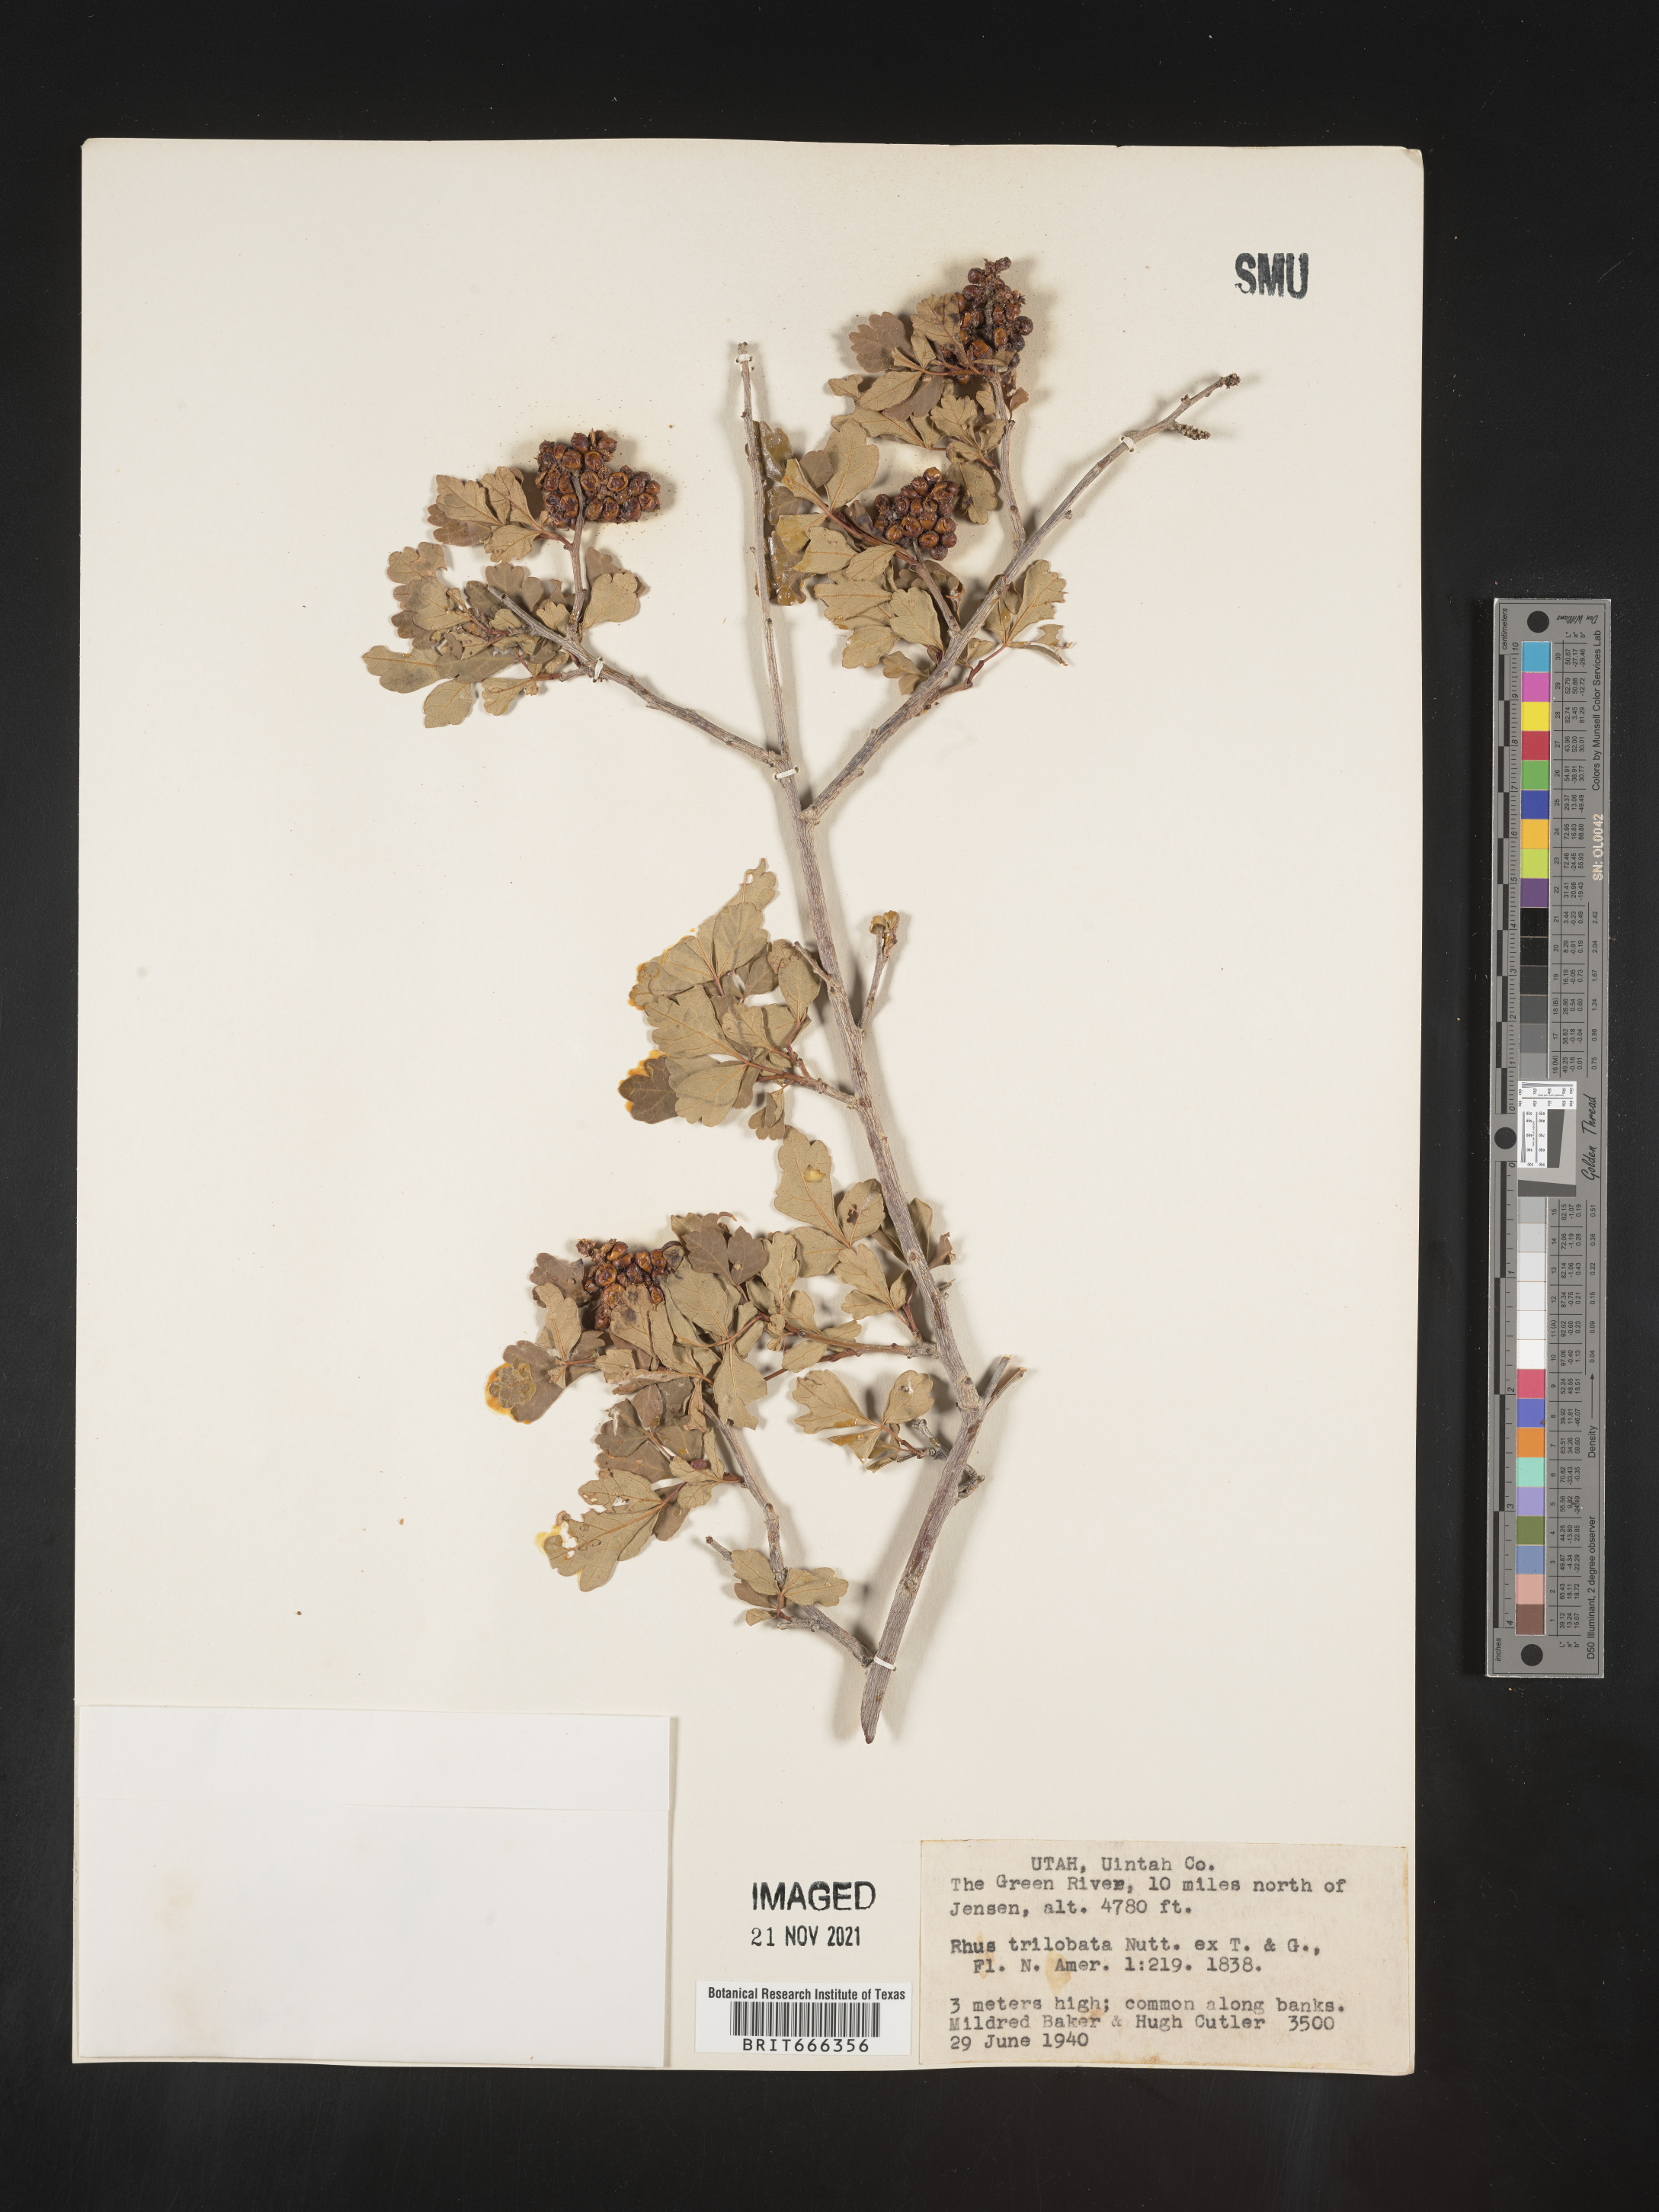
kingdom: Plantae
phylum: Tracheophyta
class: Magnoliopsida
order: Sapindales
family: Anacardiaceae
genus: Rhus
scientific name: Rhus trilobata
